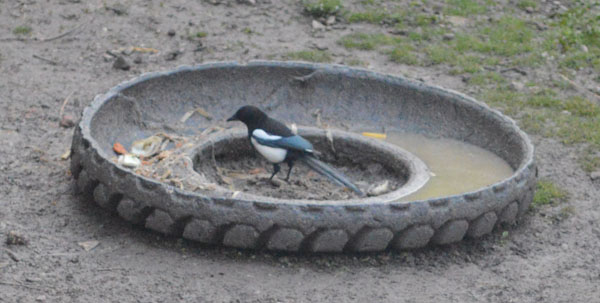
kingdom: Animalia
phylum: Chordata
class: Aves
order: Passeriformes
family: Corvidae
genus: Pica
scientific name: Pica pica
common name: Eurasian magpie
